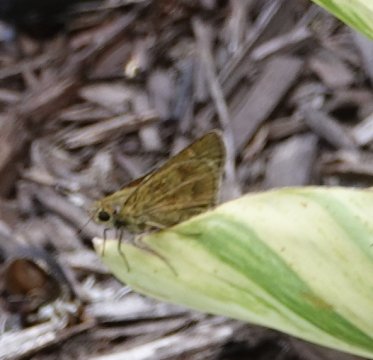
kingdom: Animalia
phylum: Arthropoda
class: Insecta
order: Lepidoptera
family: Hesperiidae
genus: Polites
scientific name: Polites vibex
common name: Whirlabout
